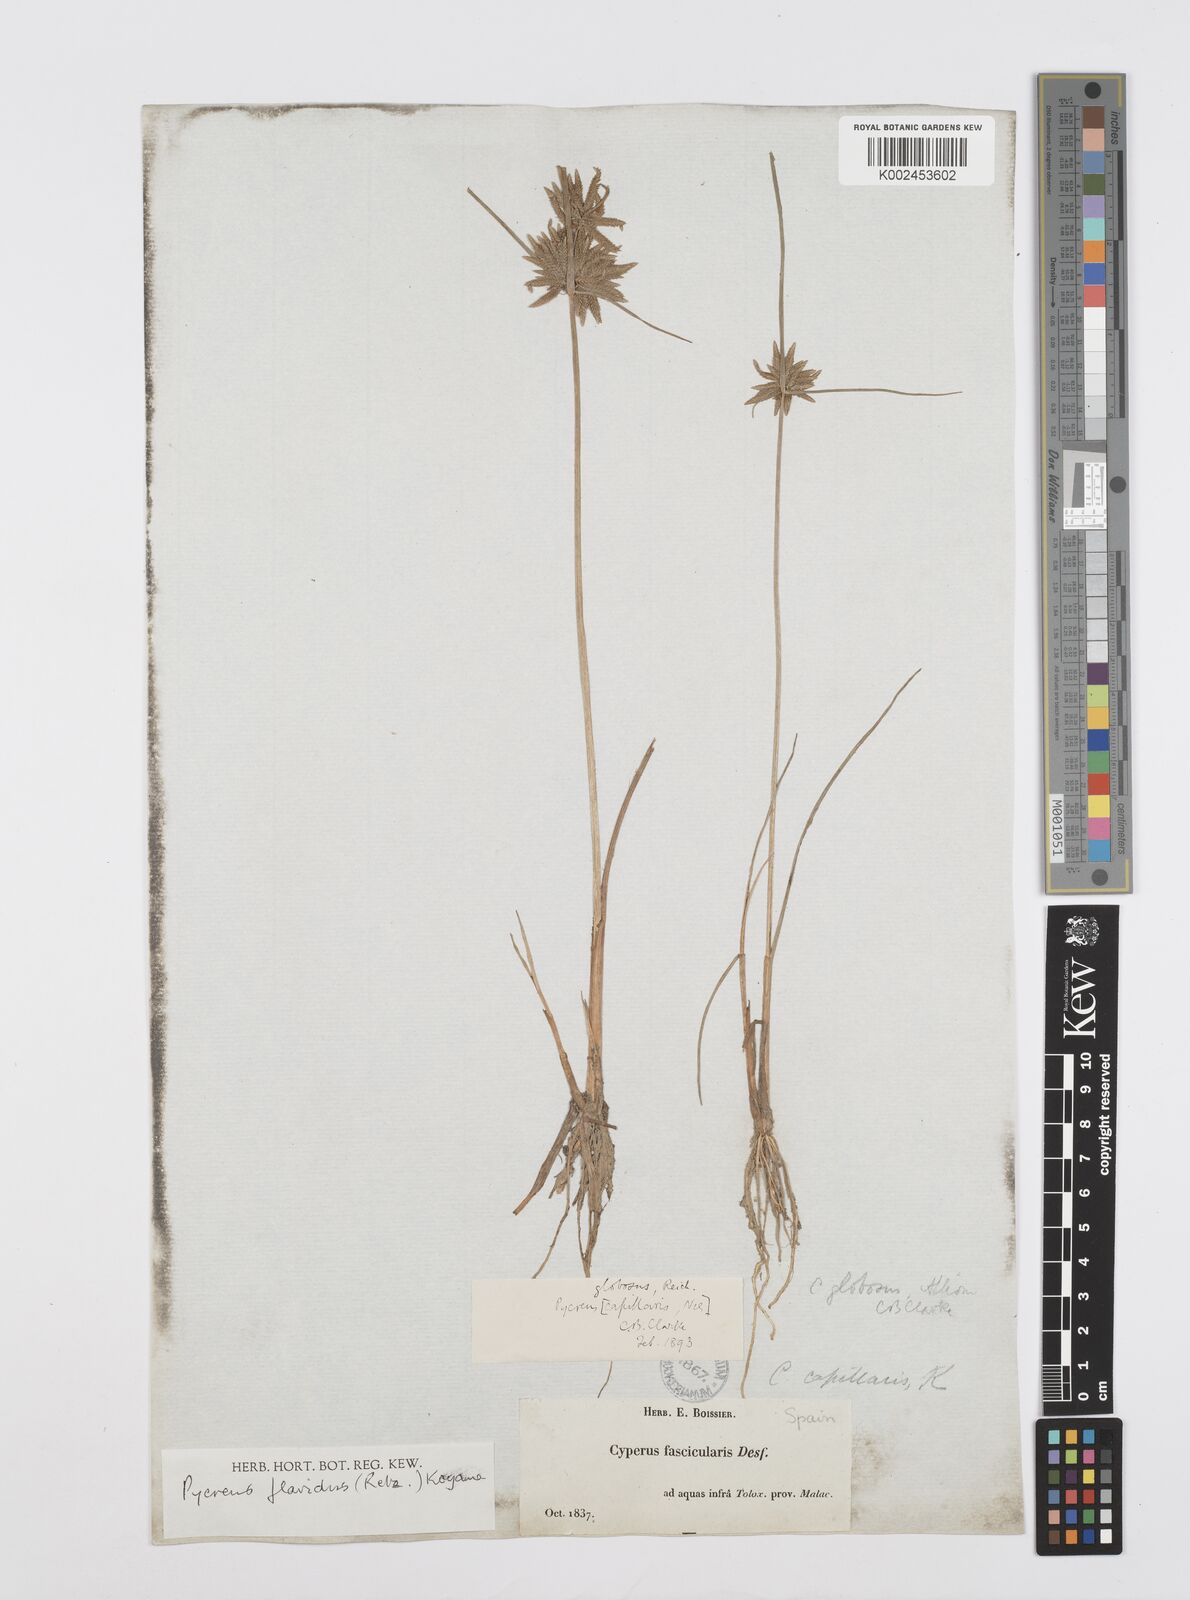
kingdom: Plantae
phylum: Tracheophyta
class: Liliopsida
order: Poales
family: Cyperaceae
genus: Cyperus
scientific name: Cyperus flavidus
